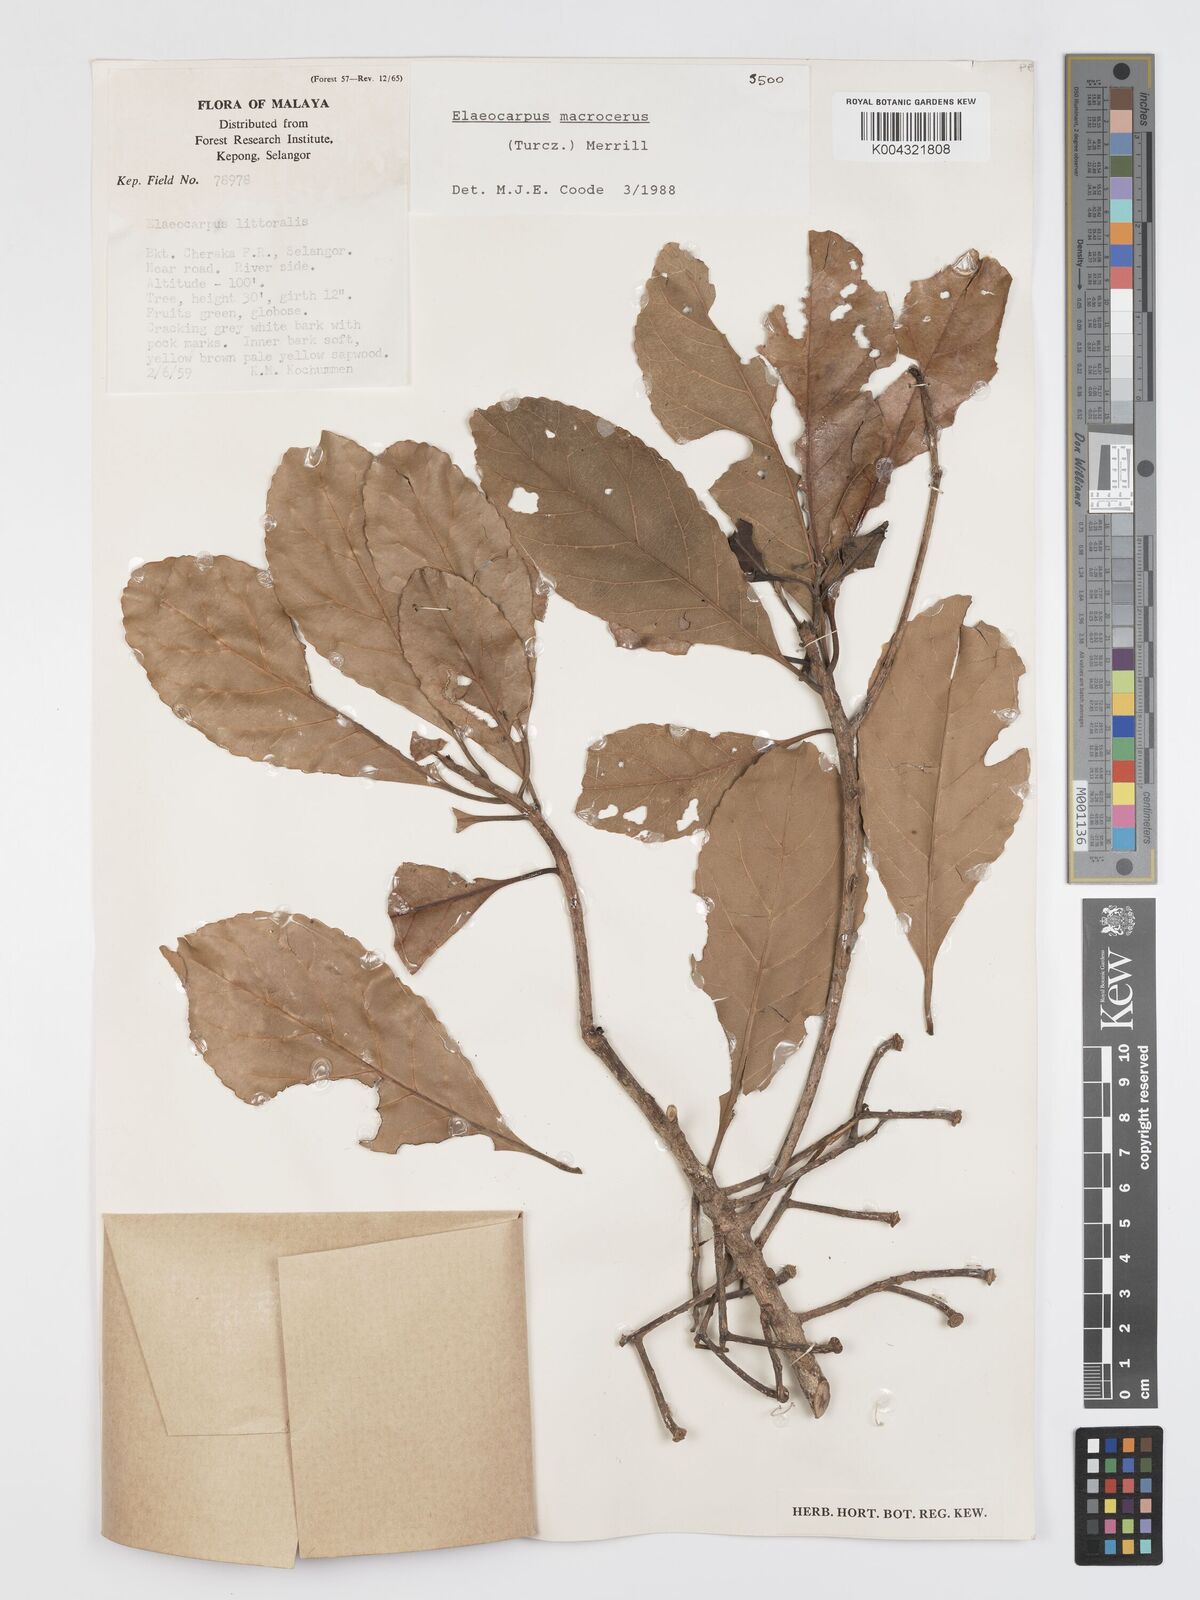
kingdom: Plantae
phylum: Tracheophyta
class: Magnoliopsida
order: Oxalidales
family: Elaeocarpaceae
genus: Elaeocarpus
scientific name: Elaeocarpus macrocerus
